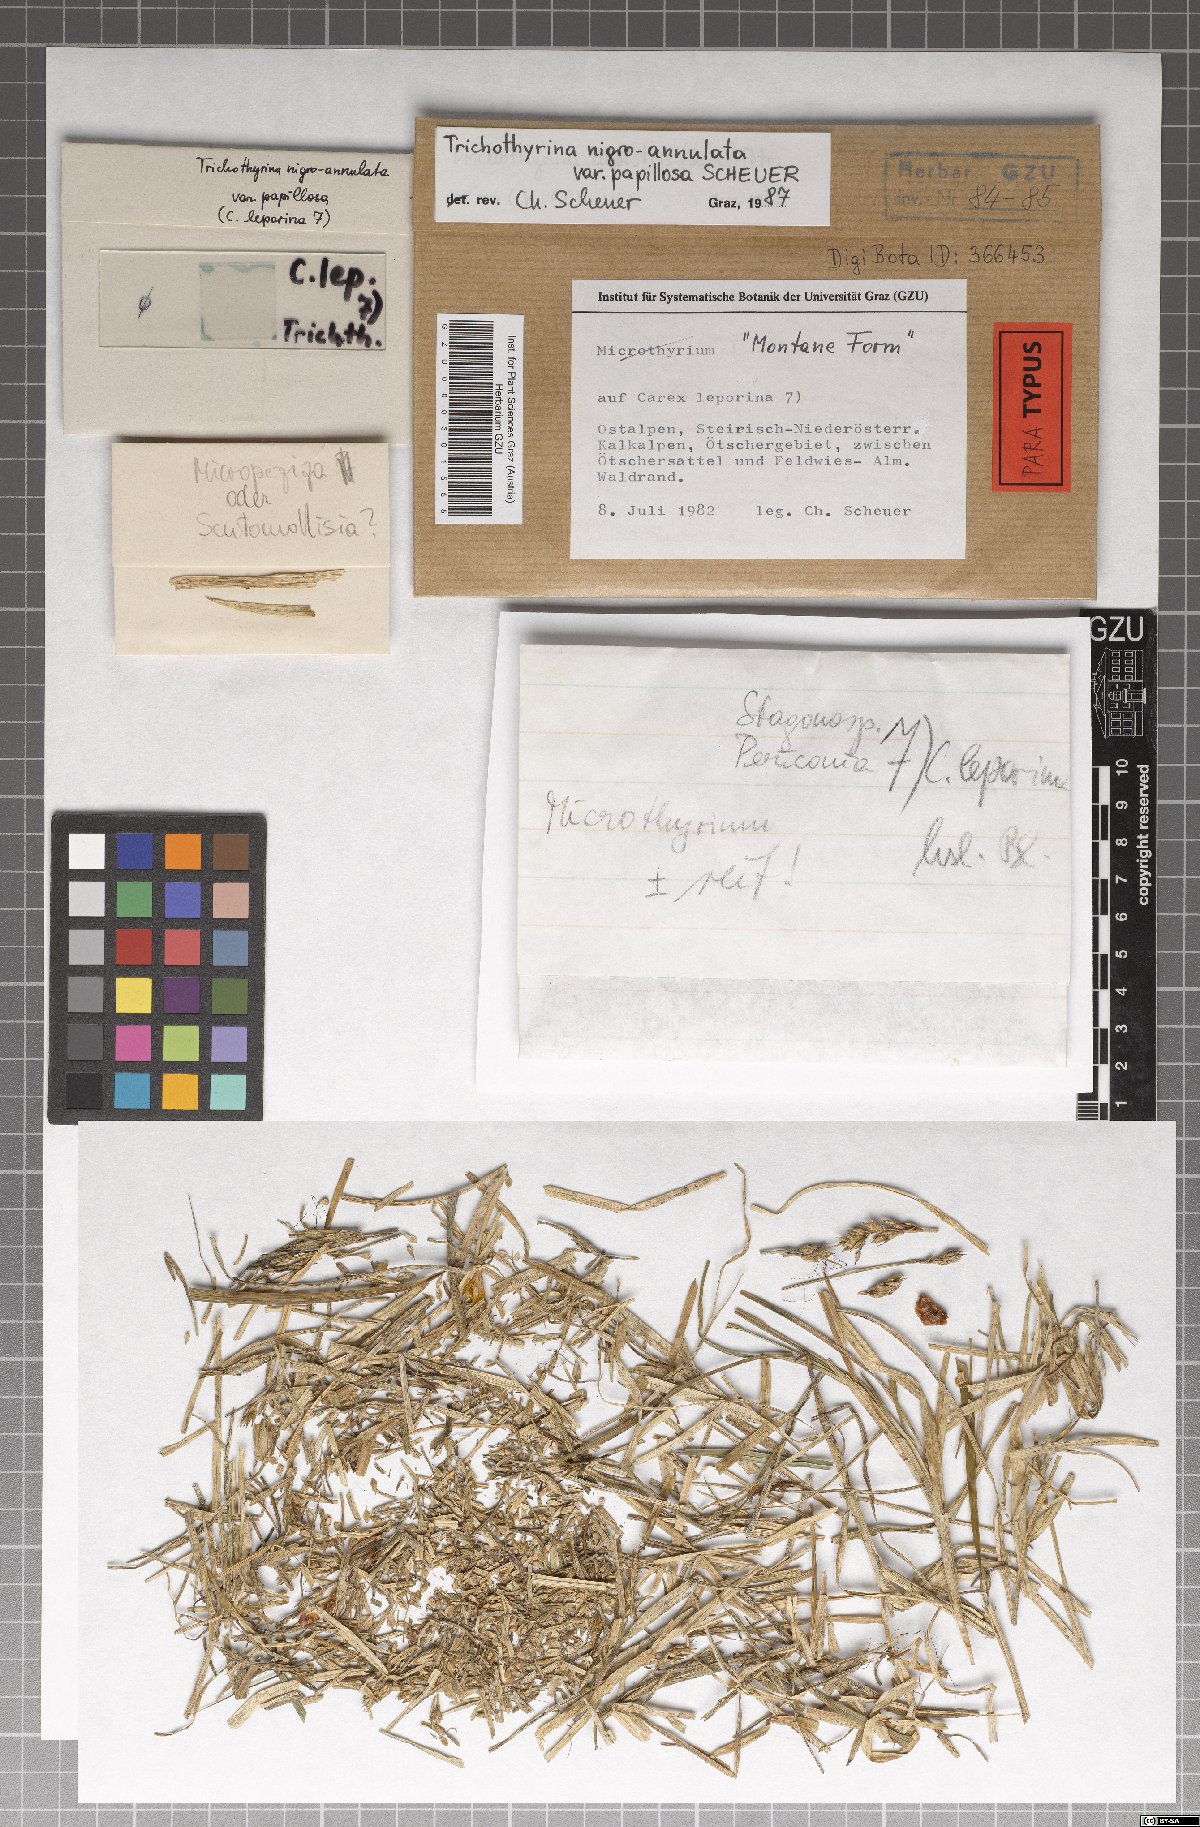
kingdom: Fungi
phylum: Ascomycota
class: Dothideomycetes
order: Microthyriales
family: Microthyriaceae
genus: Lichenopeltella
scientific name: Lichenopeltella nigroannulata
